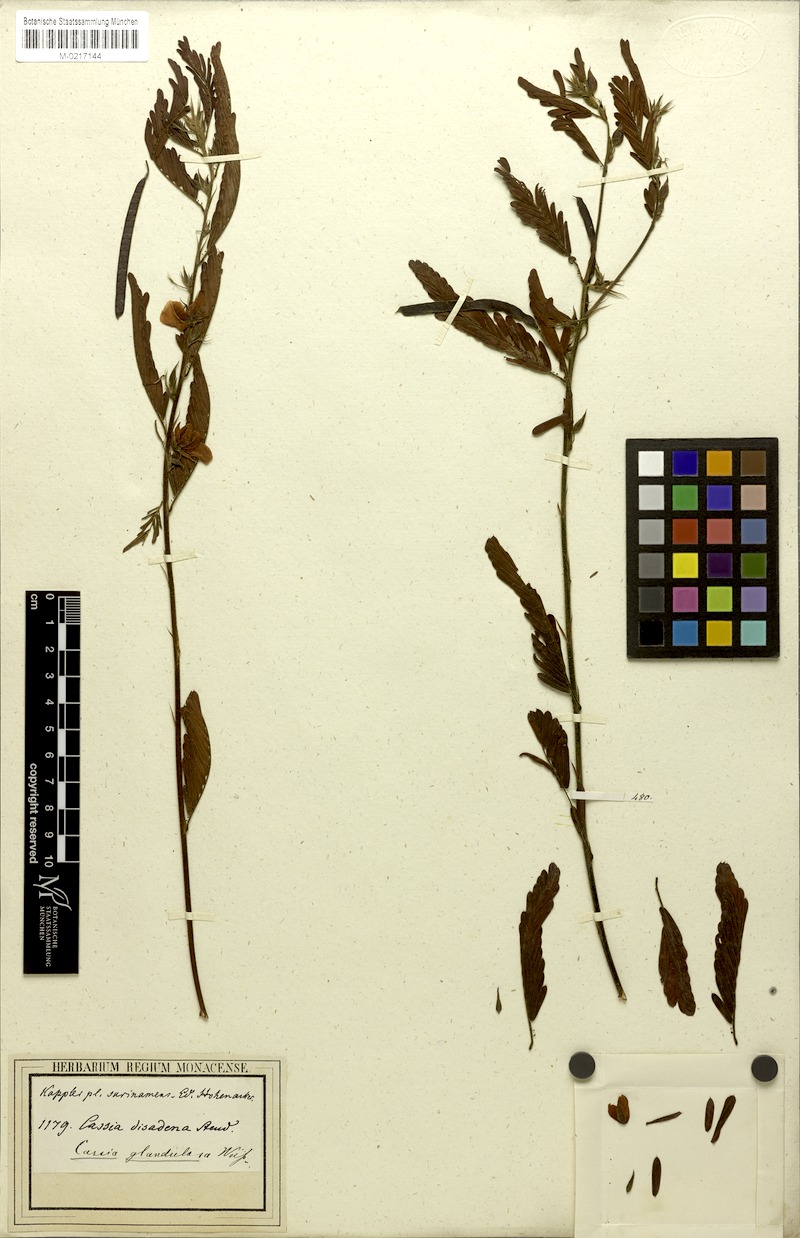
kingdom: Plantae
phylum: Tracheophyta
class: Magnoliopsida
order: Fabales
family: Fabaceae
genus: Chamaecrista
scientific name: Chamaecrista nictitans
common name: Sensitive cassia
